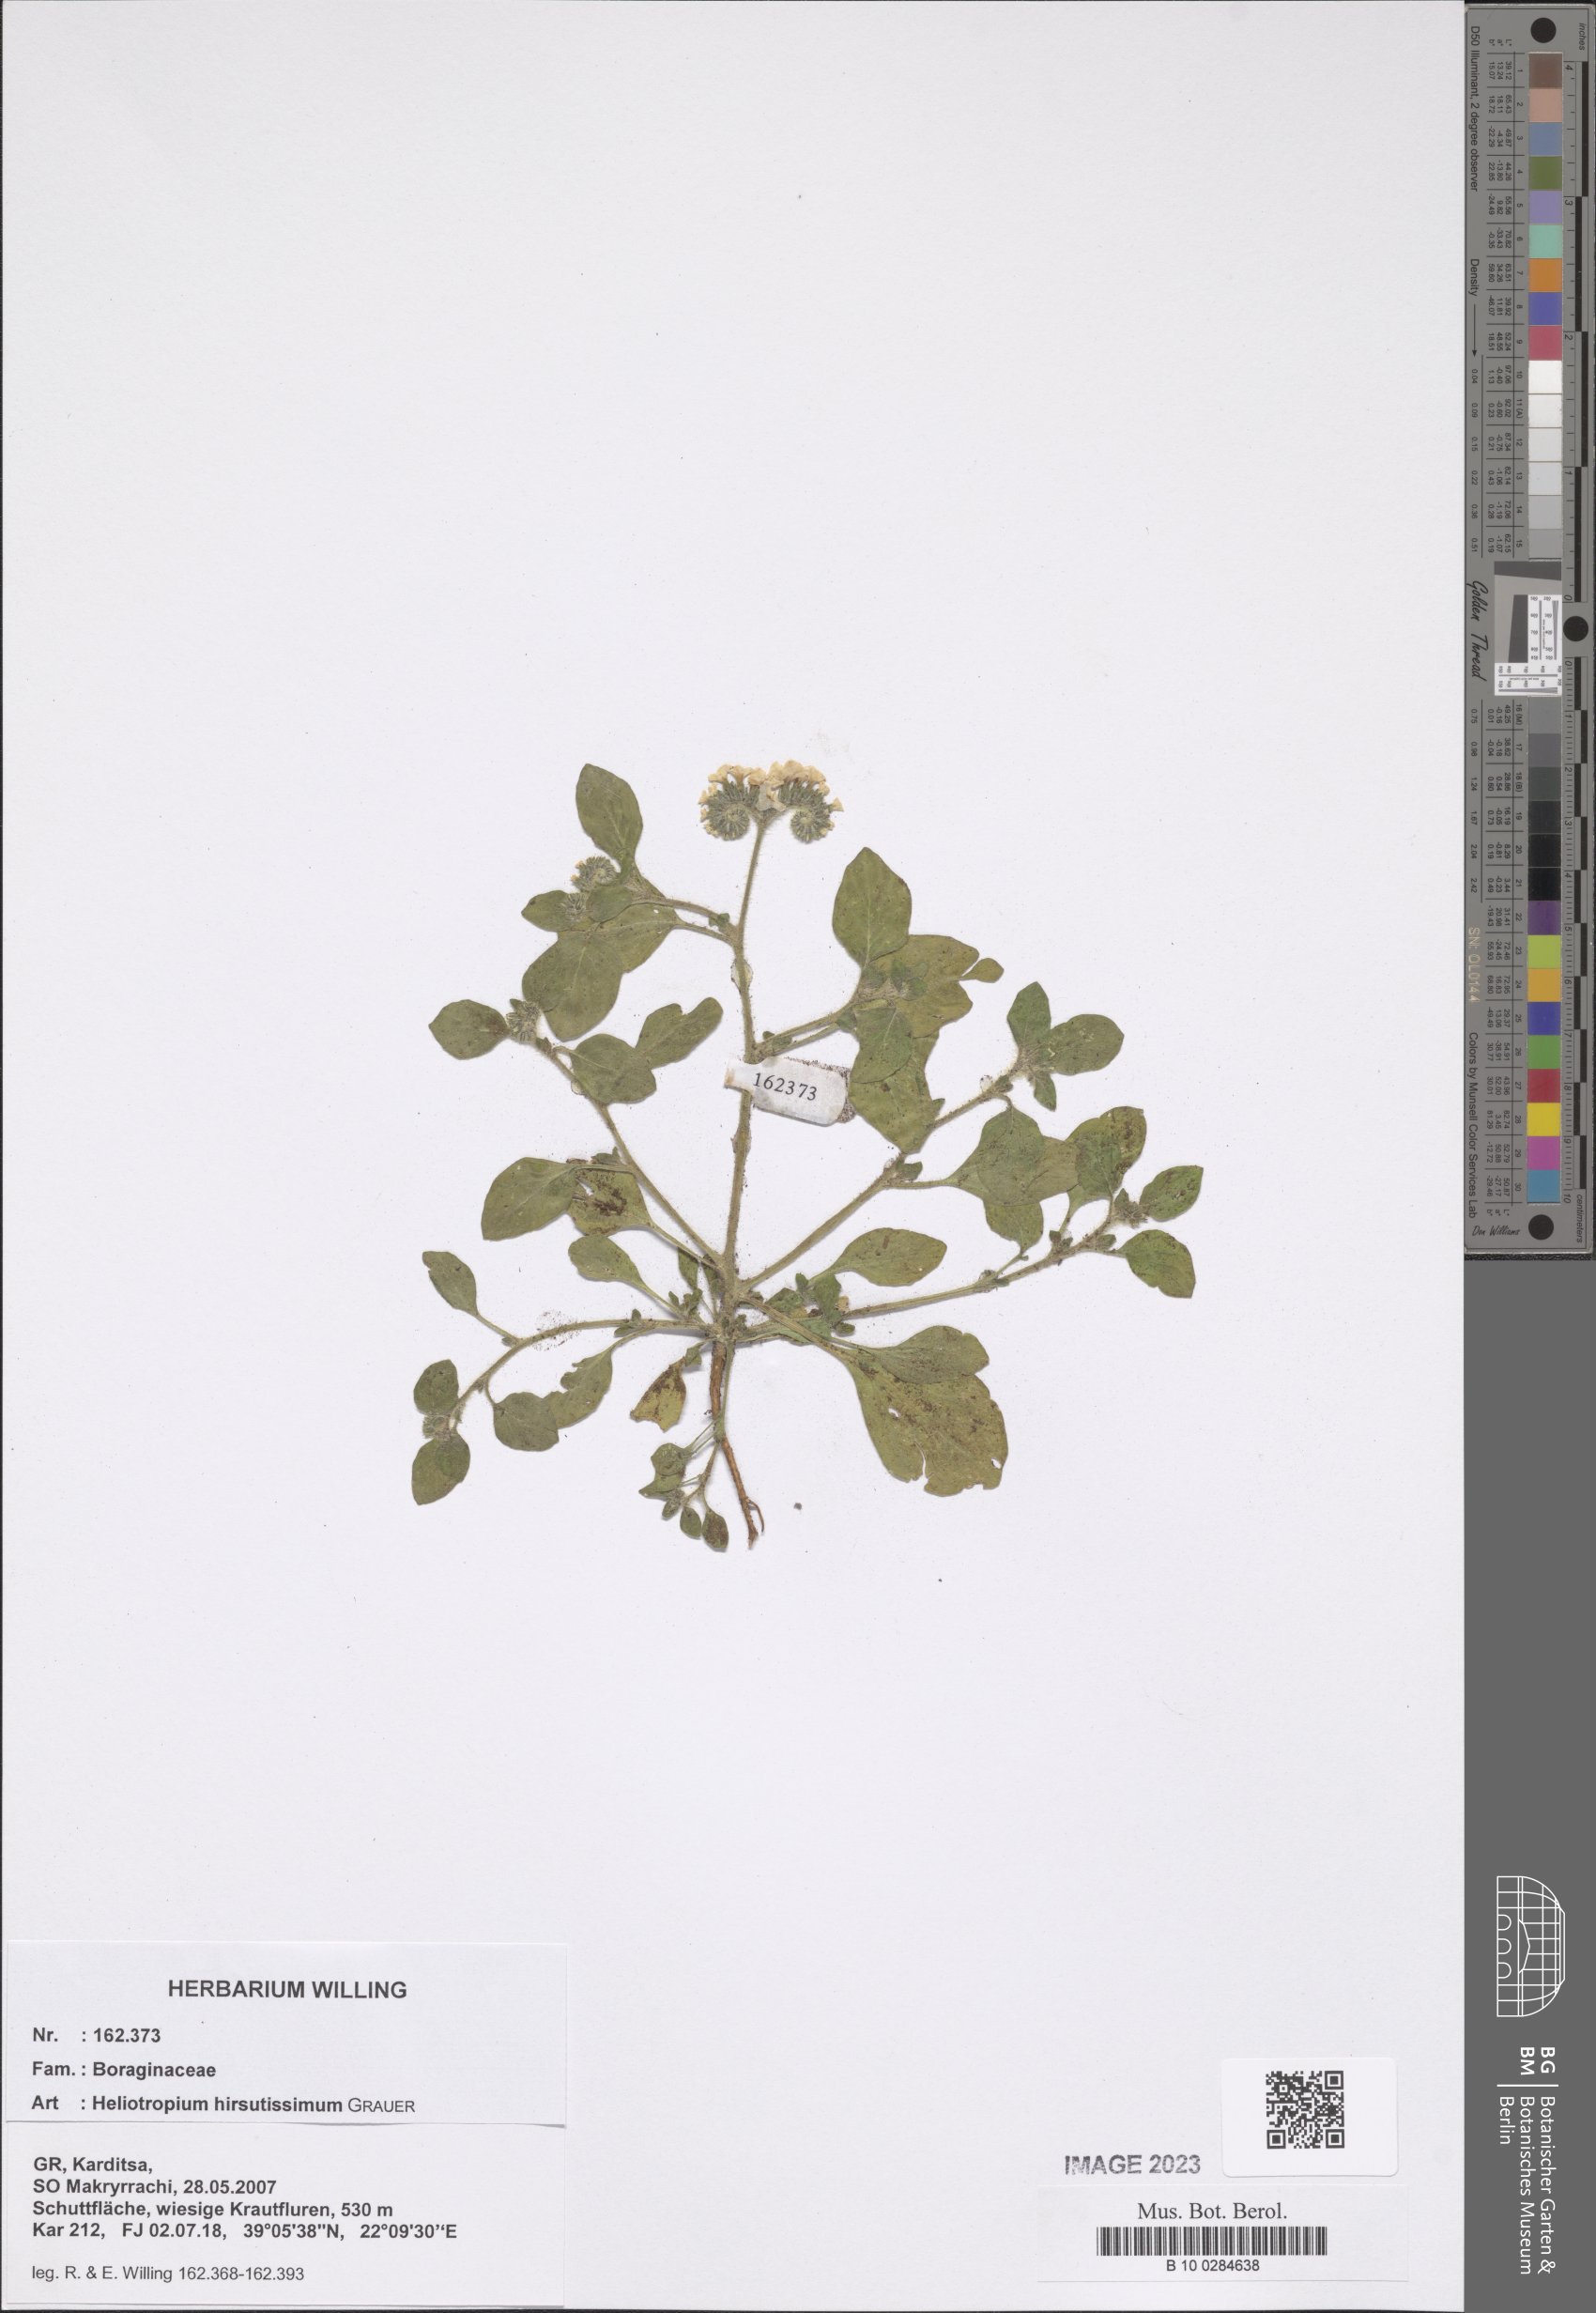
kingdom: Plantae
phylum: Tracheophyta
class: Magnoliopsida
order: Boraginales
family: Heliotropiaceae
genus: Heliotropium
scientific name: Heliotropium hirsutissimum
